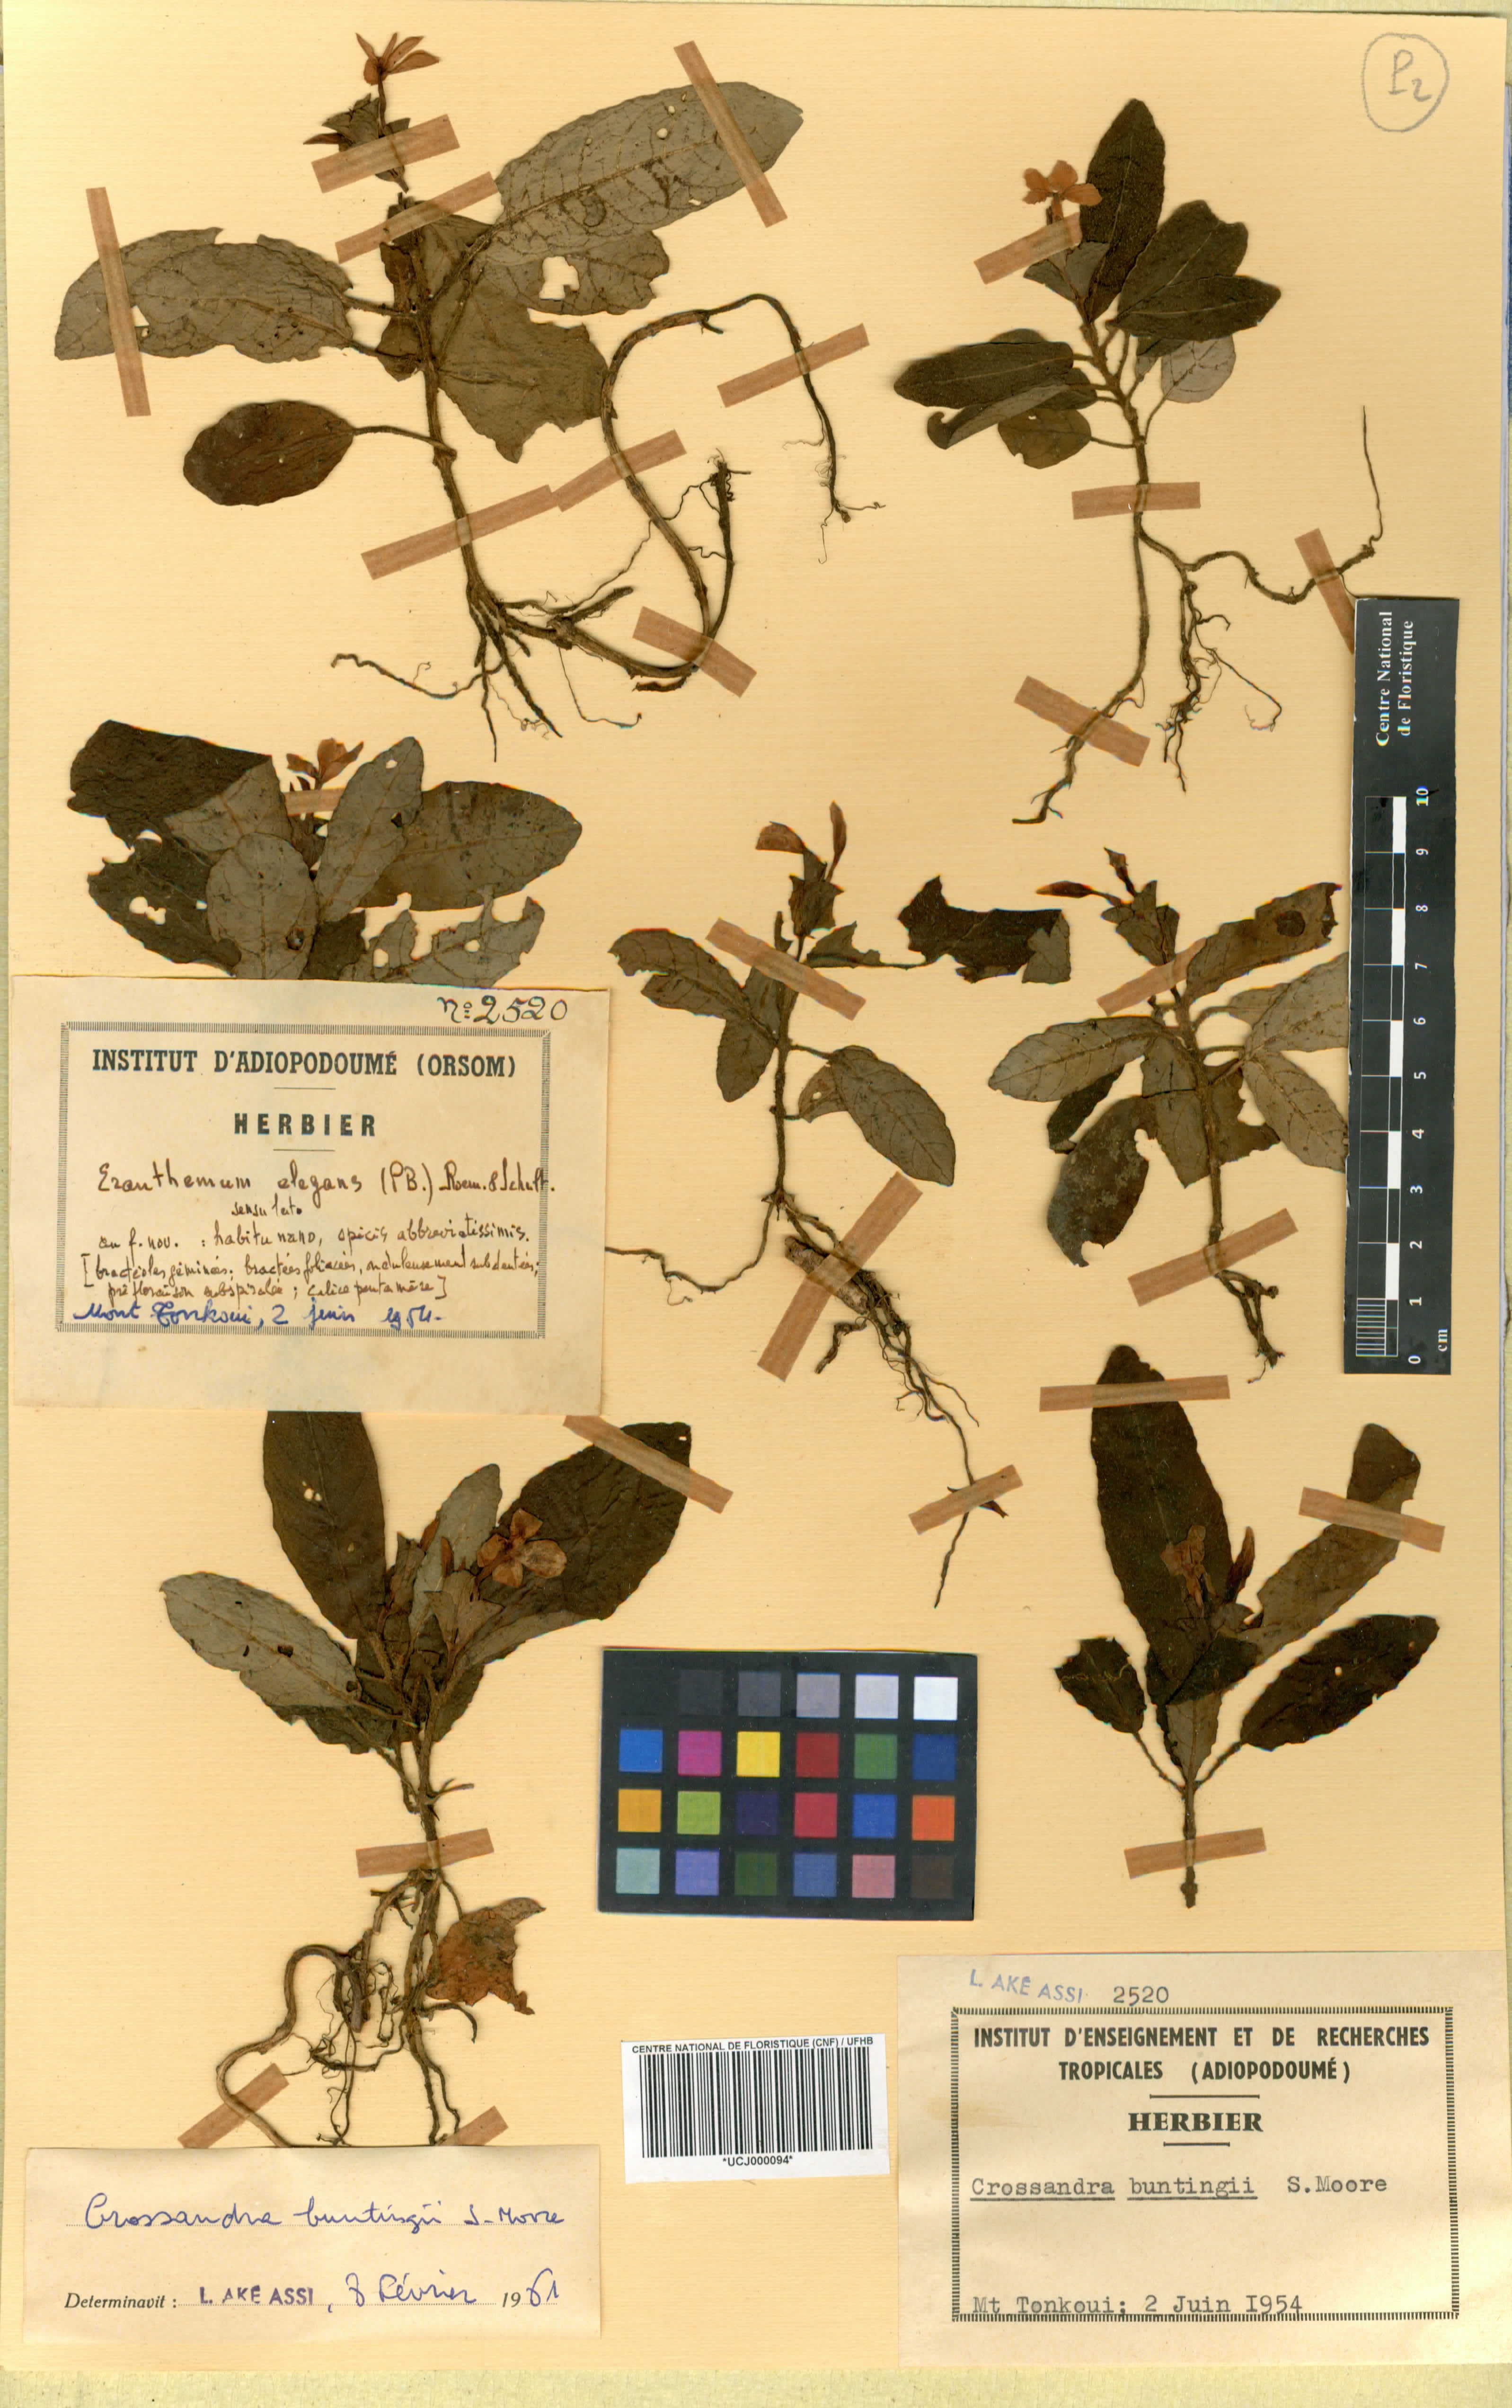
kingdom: Plantae
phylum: Tracheophyta
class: Magnoliopsida
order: Lamiales
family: Acanthaceae
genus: Stenandriopsis
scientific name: Stenandriopsis buntingii
